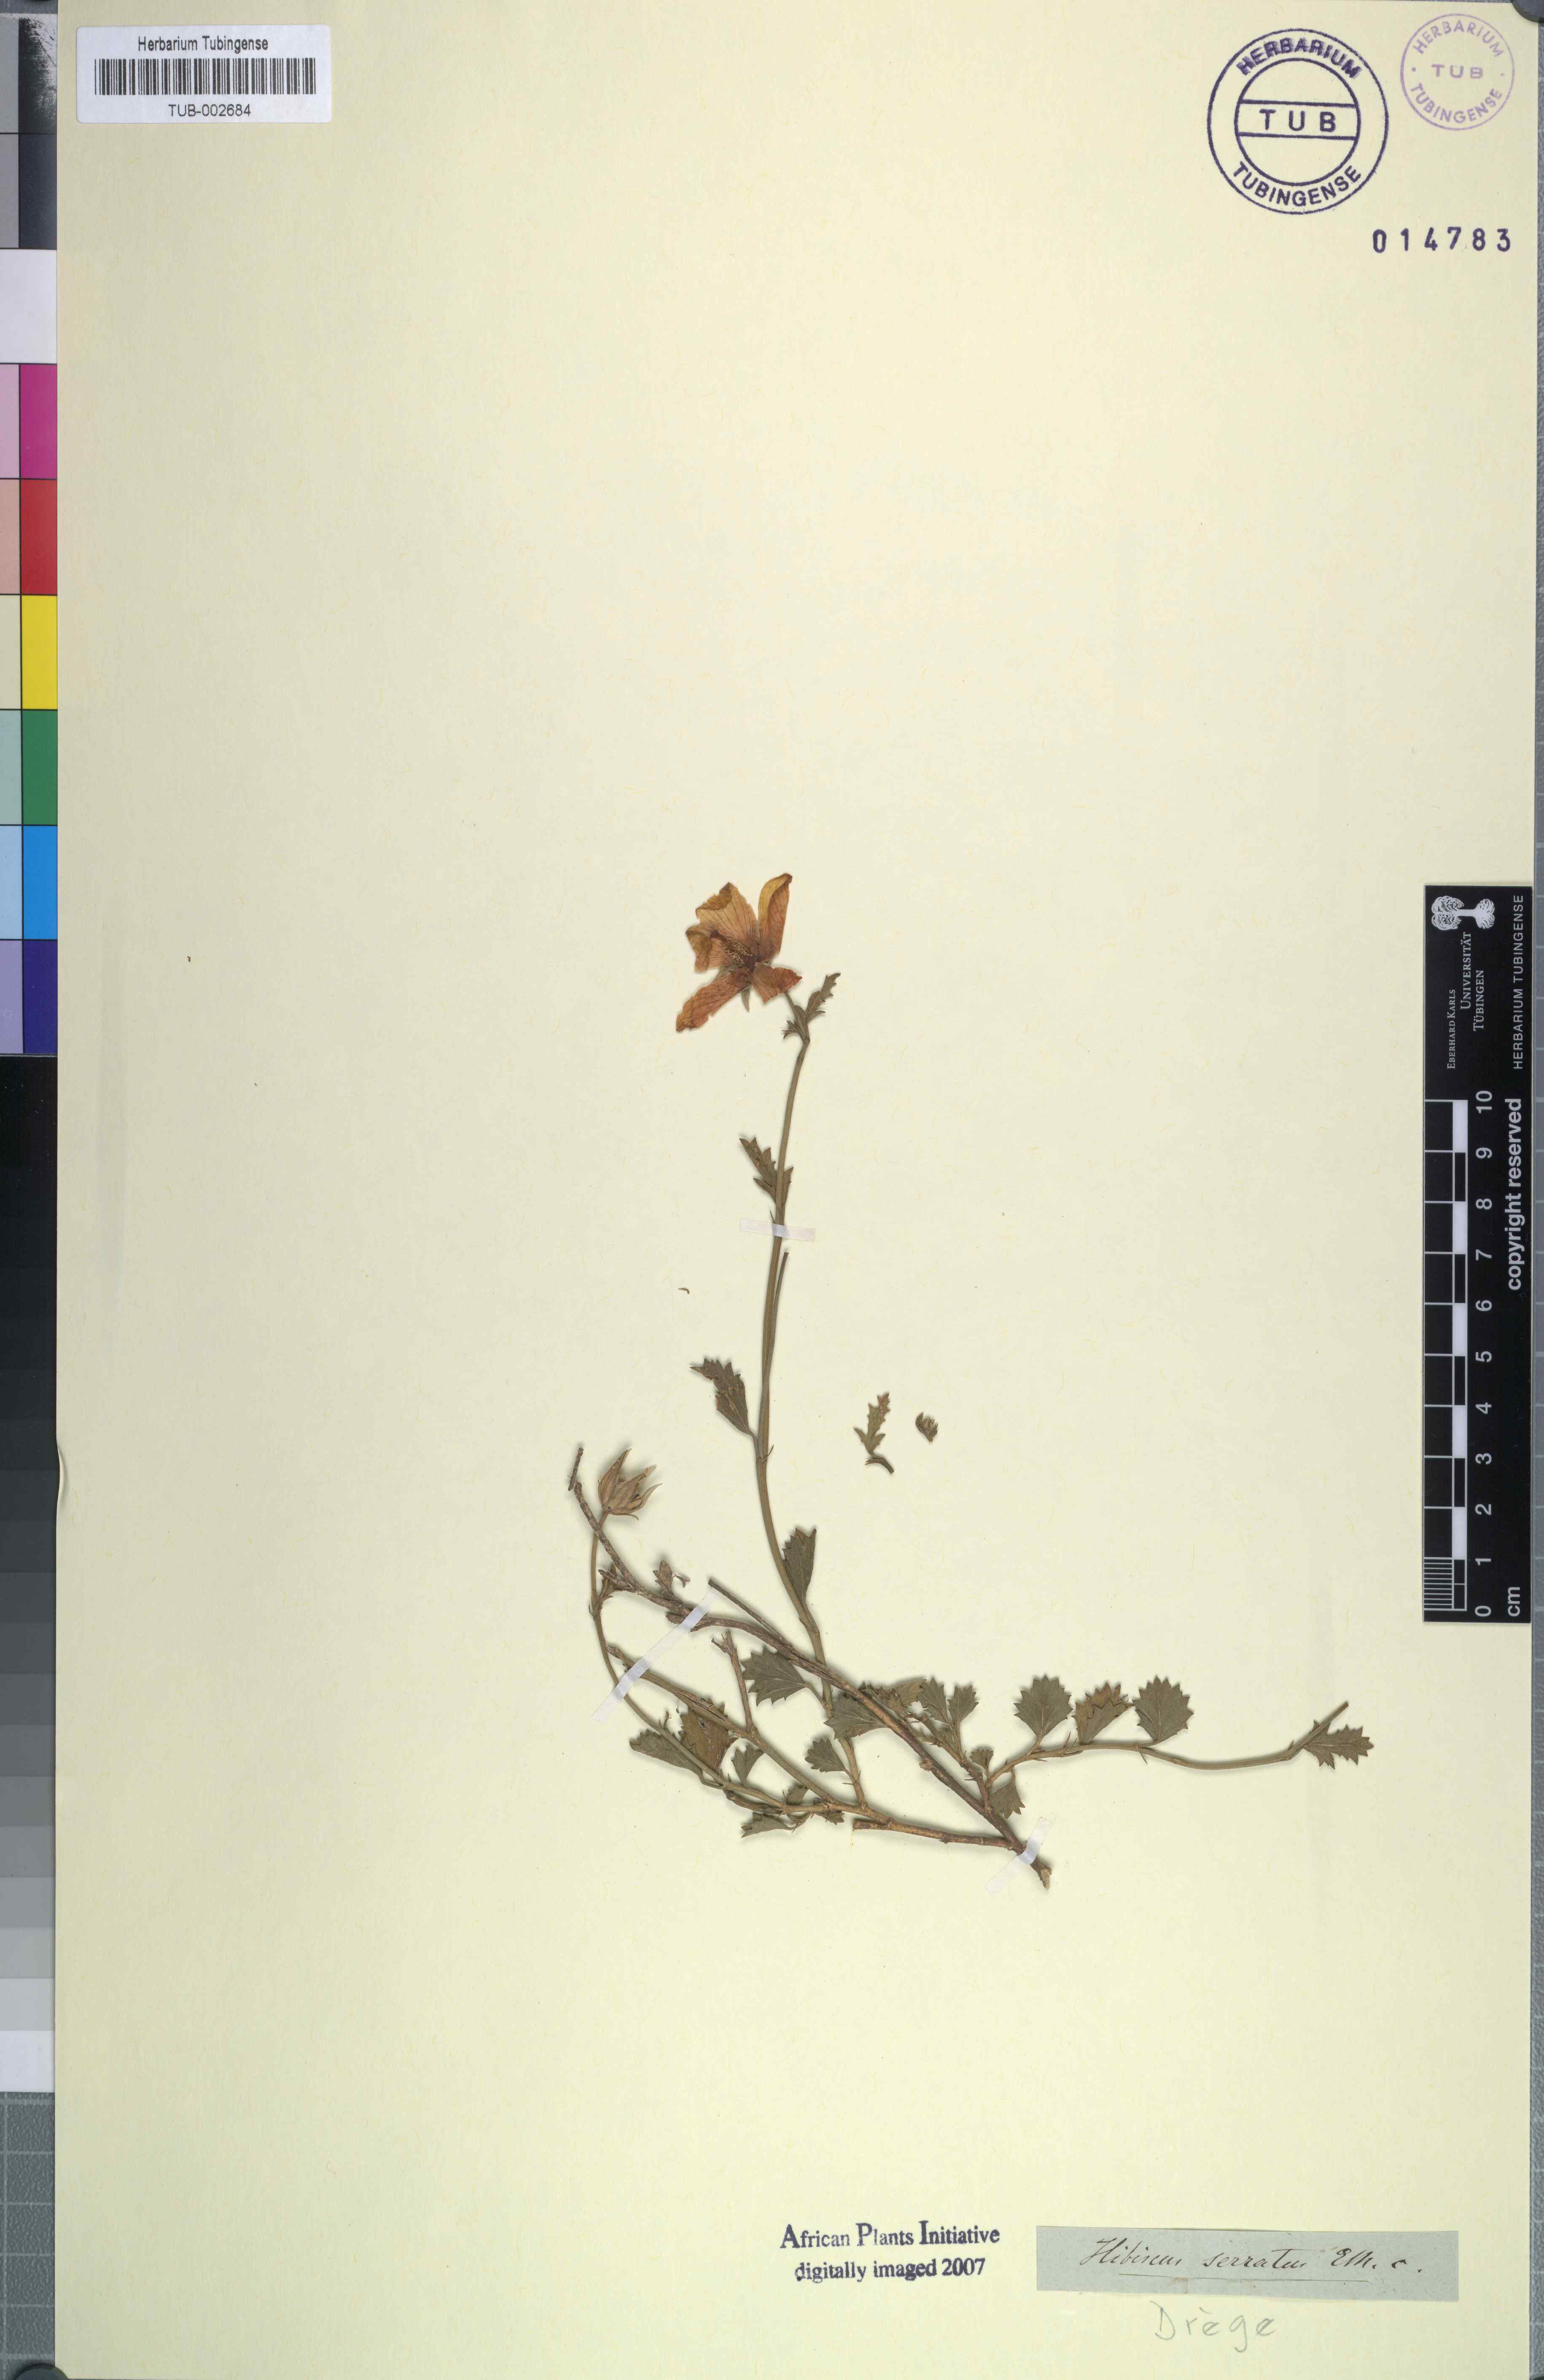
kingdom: Plantae
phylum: Tracheophyta
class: Magnoliopsida
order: Malvales
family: Malvaceae
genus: Hibiscus
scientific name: Hibiscus pusillus
